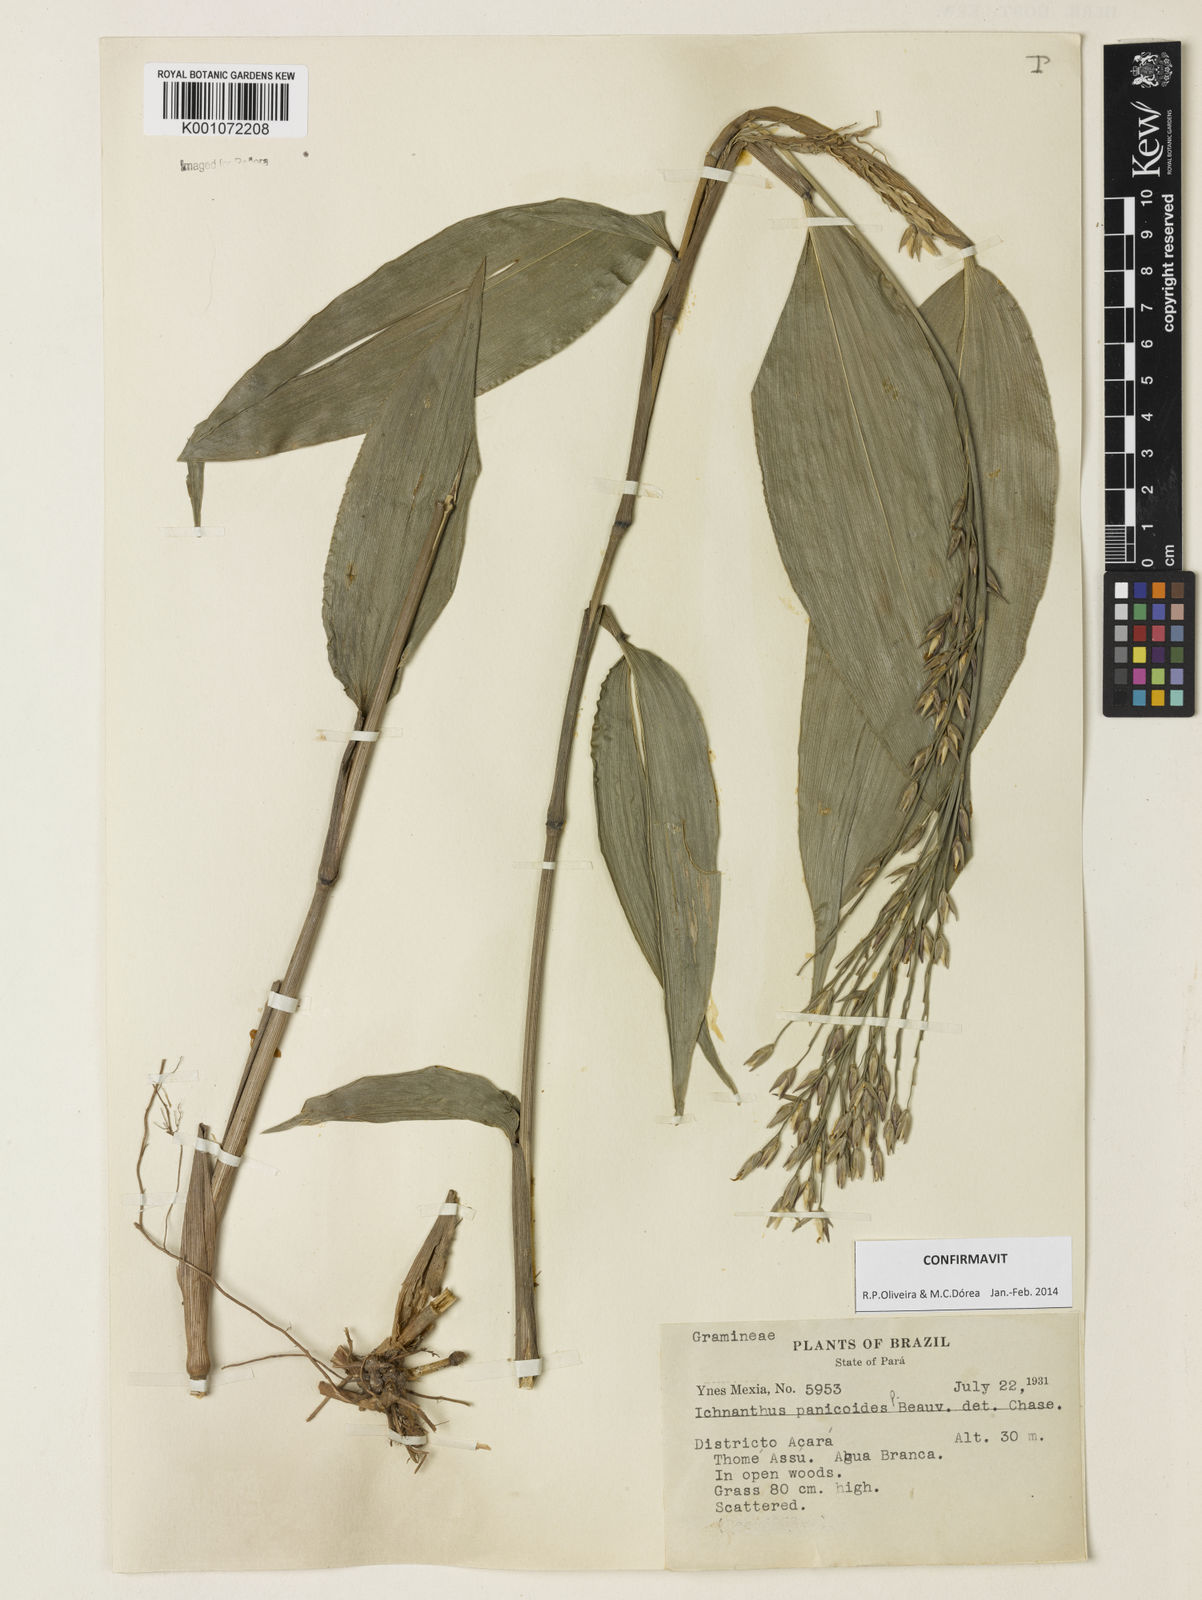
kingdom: Plantae
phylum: Tracheophyta
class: Liliopsida
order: Poales
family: Poaceae
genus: Ichnanthus
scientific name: Ichnanthus panicoides
